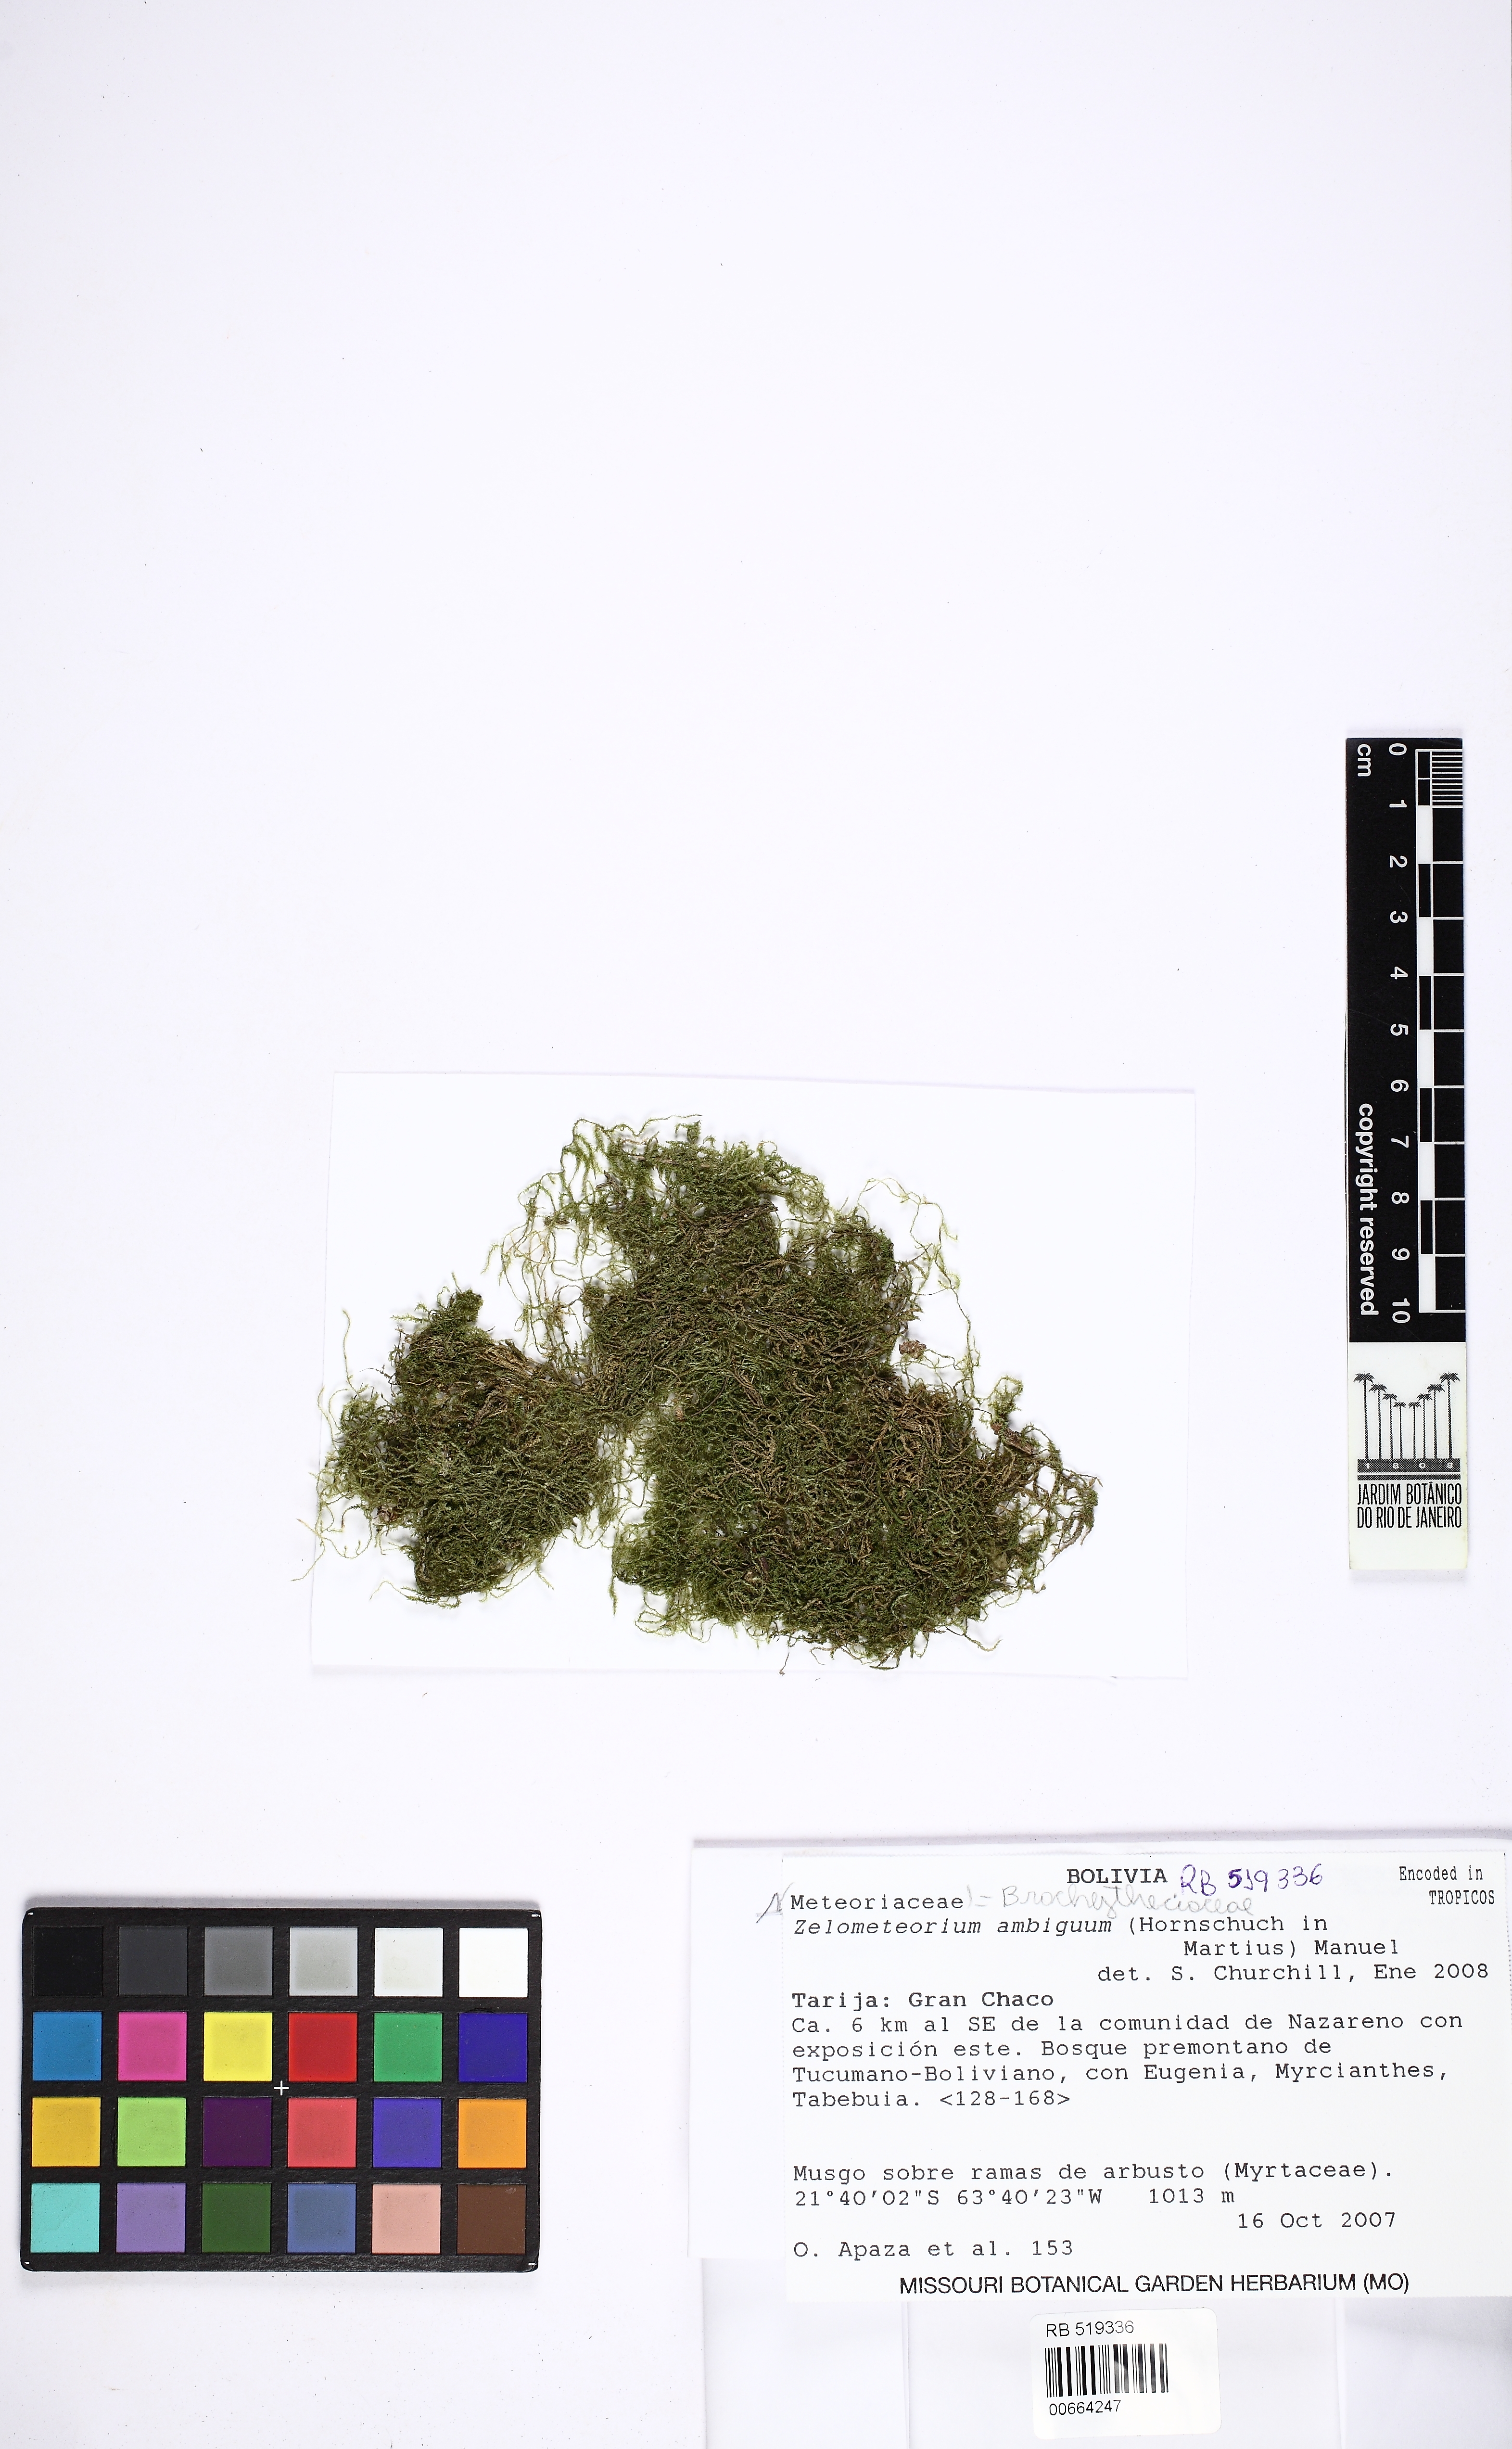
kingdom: Plantae
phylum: Bryophyta
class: Bryopsida
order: Hypnales
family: Brachytheciaceae
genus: Zelometeorium
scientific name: Zelometeorium ambiguum
